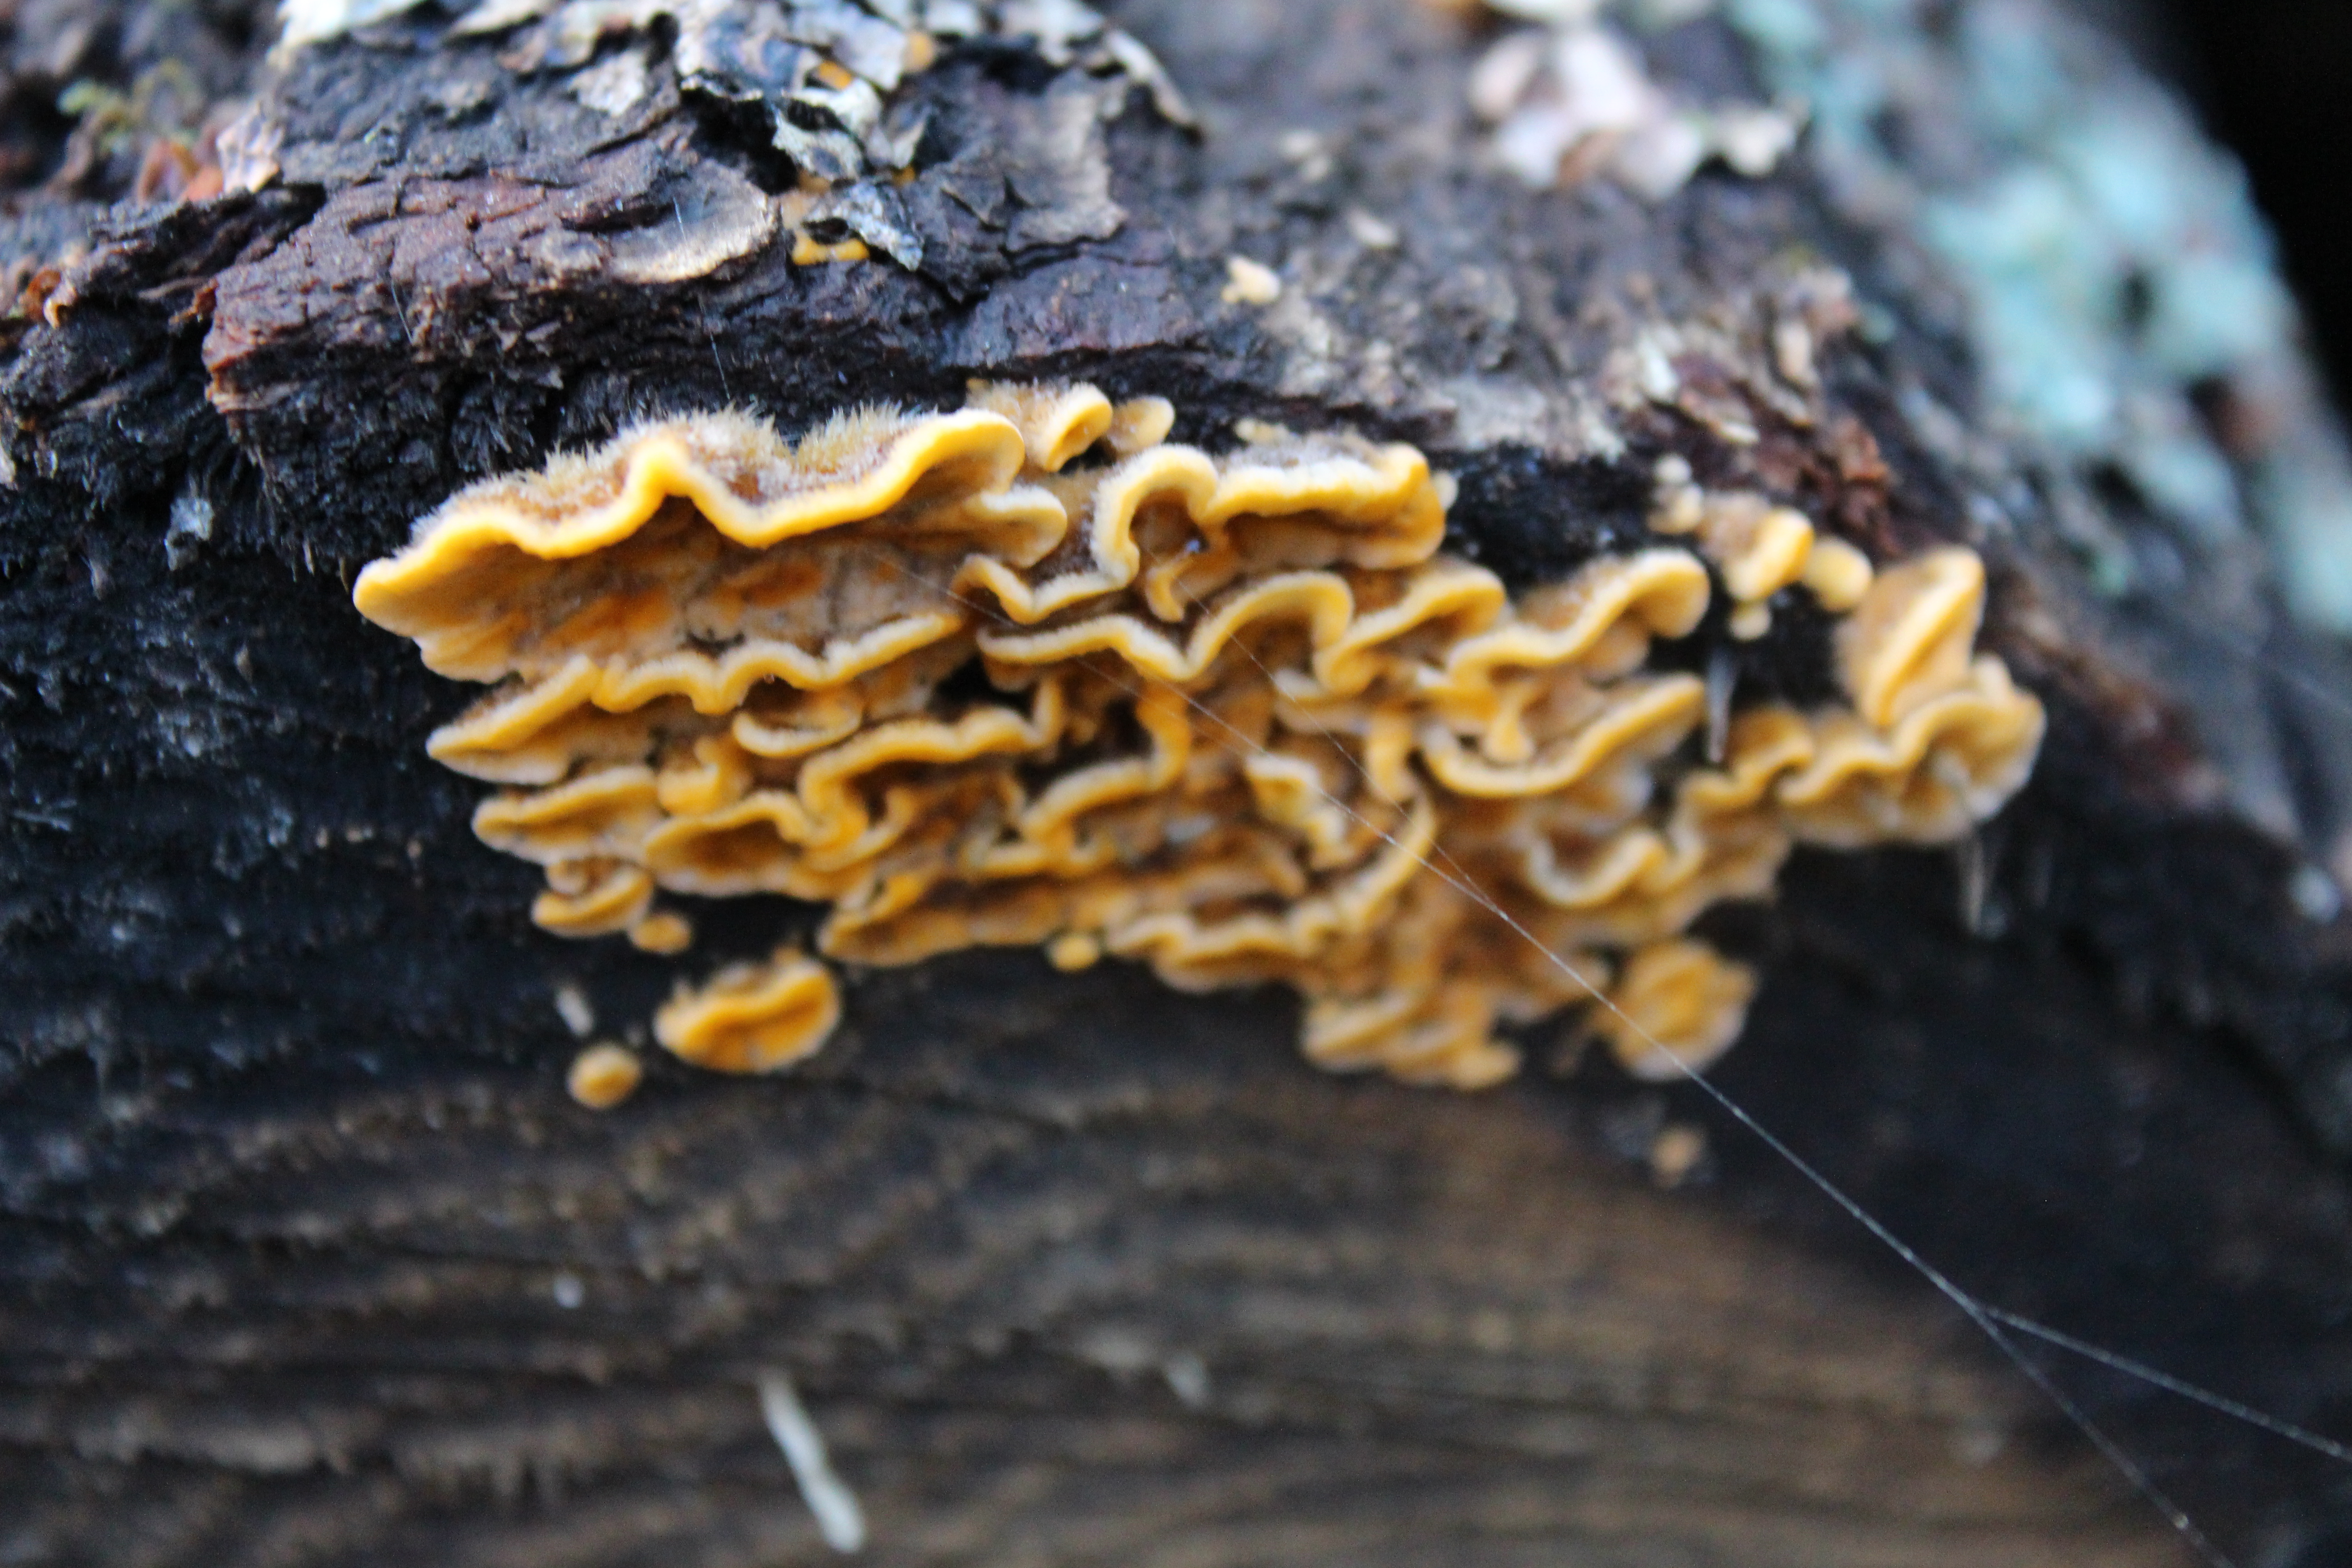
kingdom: Fungi
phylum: Basidiomycota
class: Agaricomycetes
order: Russulales
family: Stereaceae
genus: Stereum
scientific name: Stereum hirsutum
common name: Hairy curtain crust
